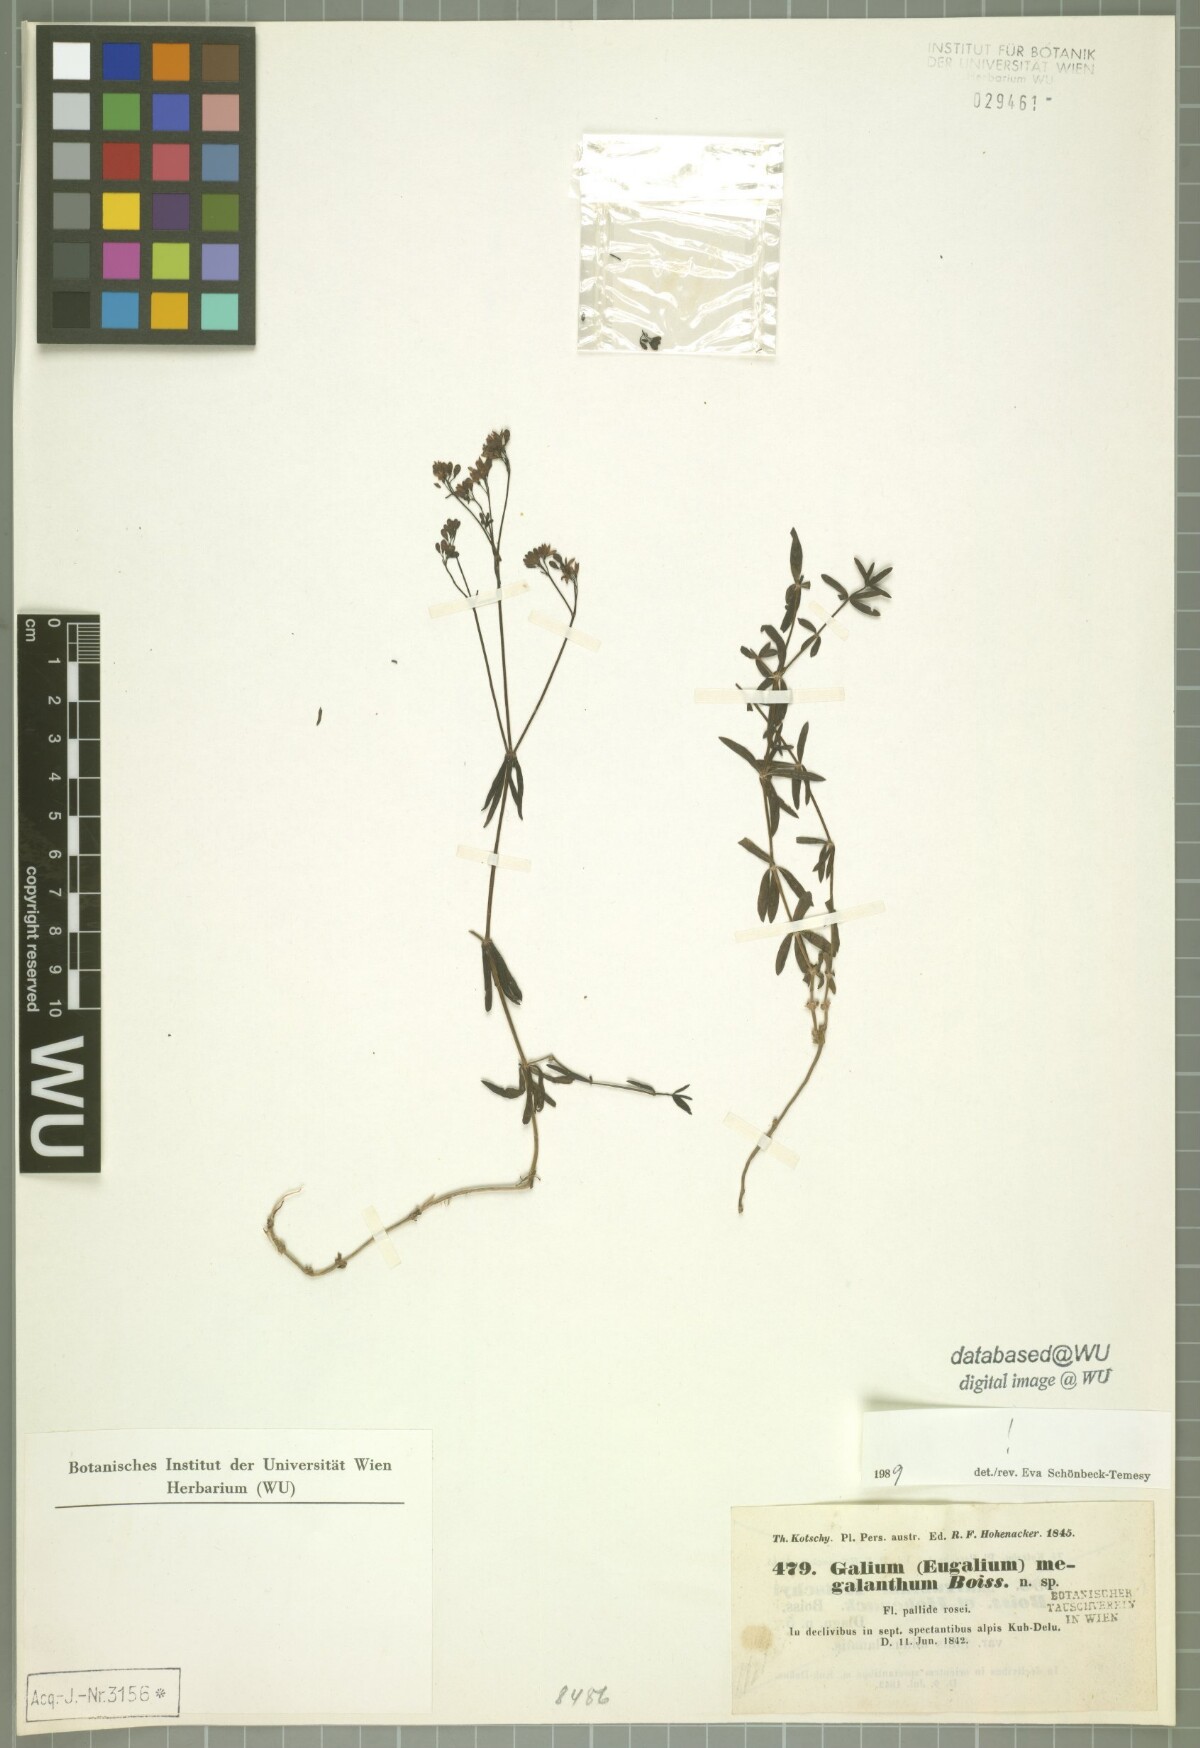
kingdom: Plantae
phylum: Tracheophyta
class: Magnoliopsida
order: Gentianales
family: Rubiaceae
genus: Galium
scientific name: Galium megalanthum
